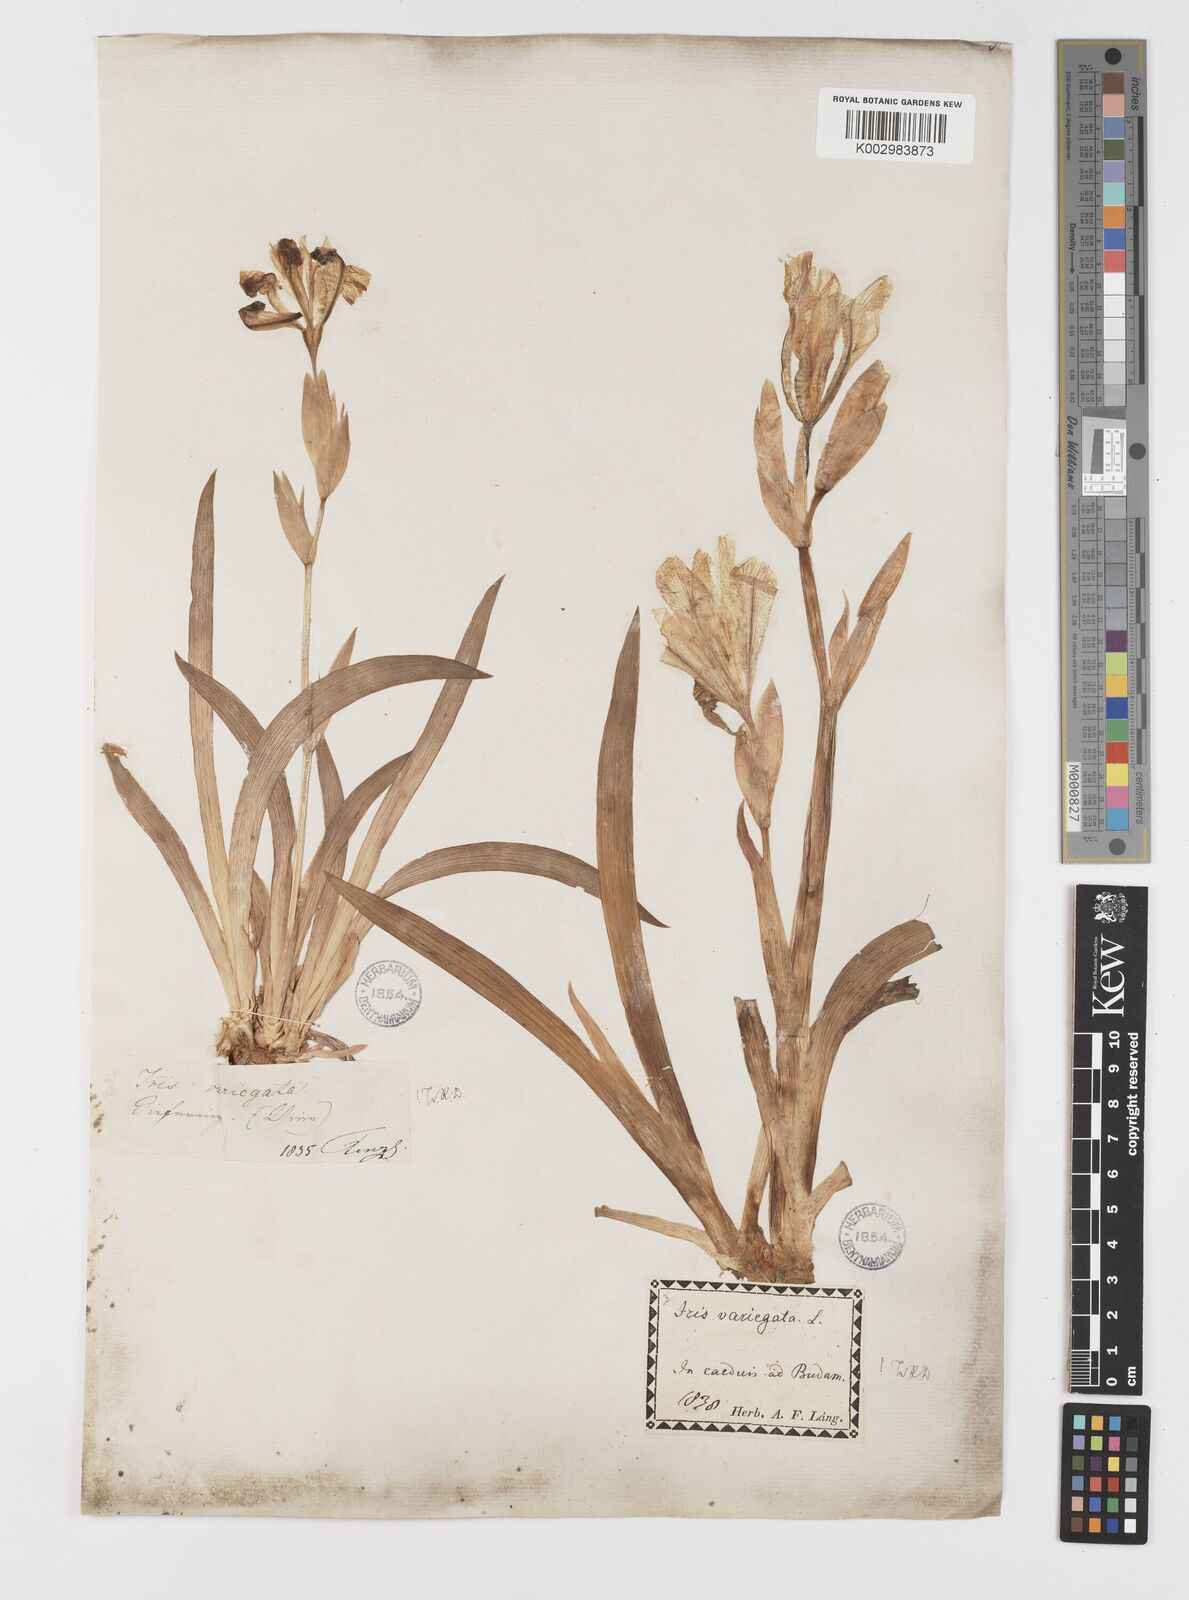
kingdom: Plantae
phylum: Tracheophyta
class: Liliopsida
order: Asparagales
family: Iridaceae
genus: Iris
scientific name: Iris variegata
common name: Hungarian iris
